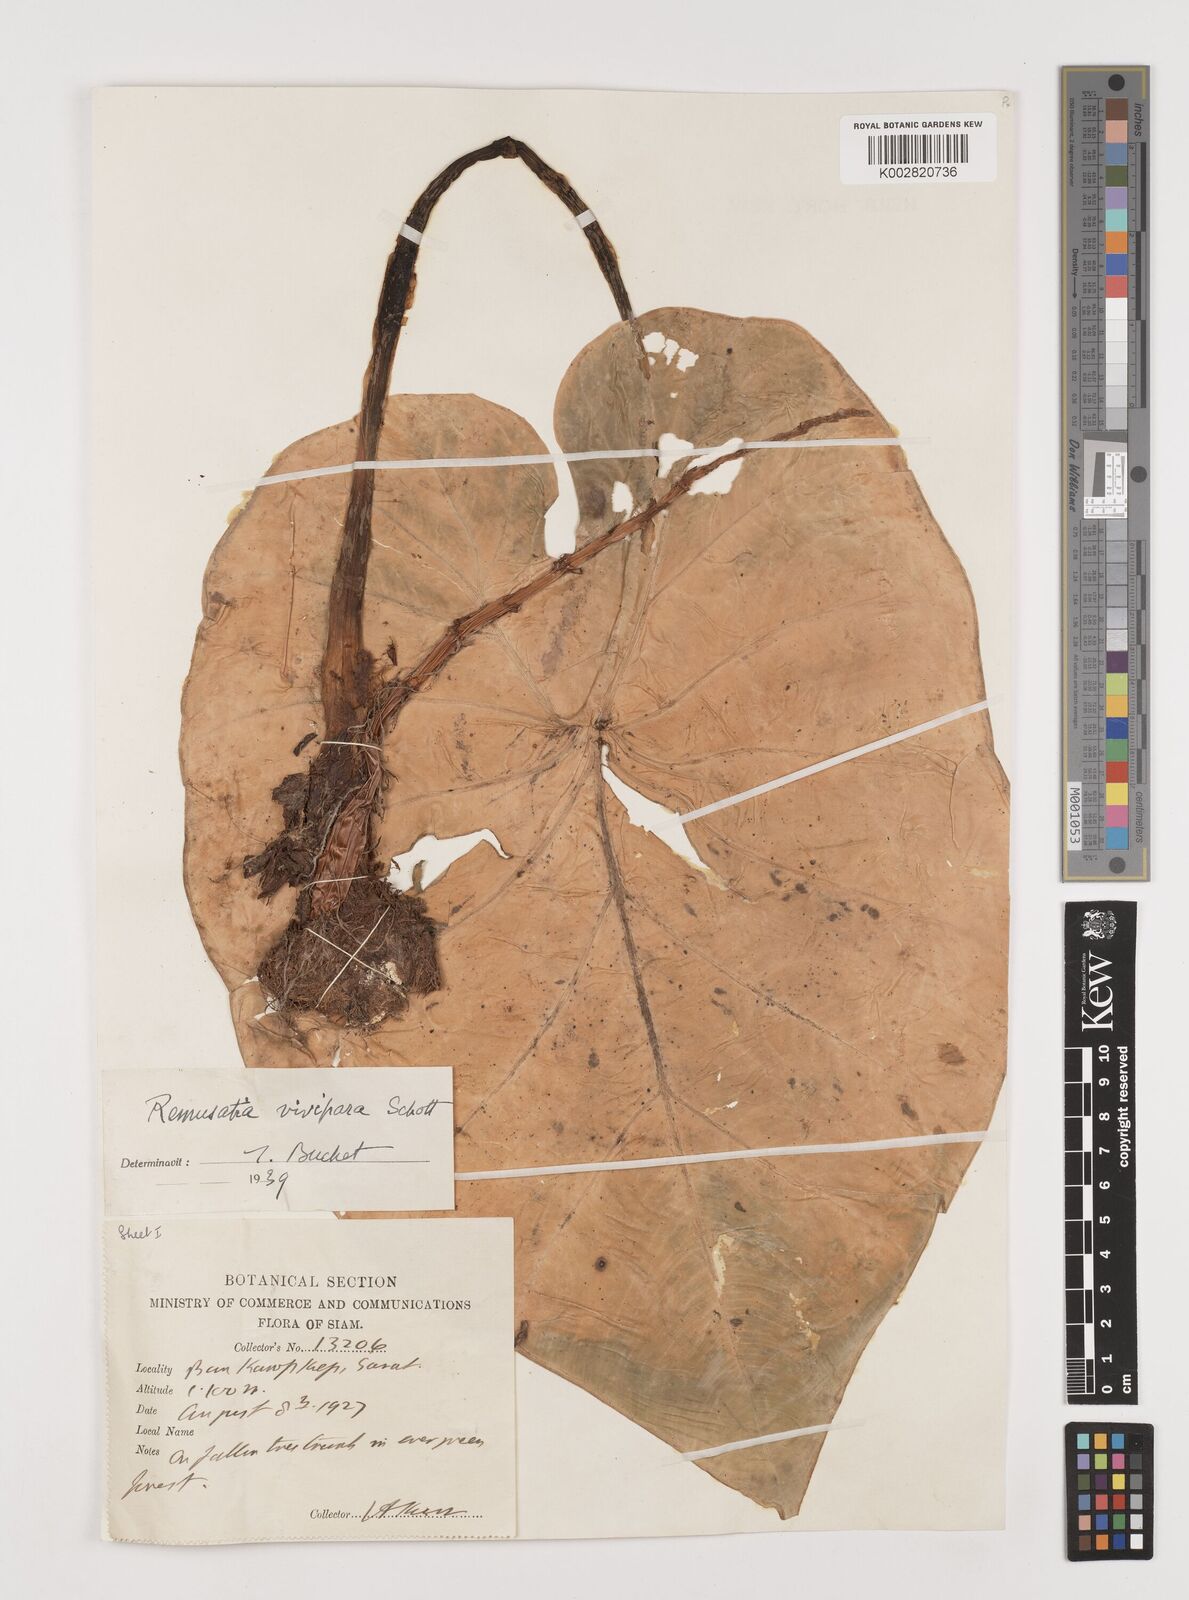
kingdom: Plantae
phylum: Tracheophyta
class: Liliopsida
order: Alismatales
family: Araceae
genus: Remusatia
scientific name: Remusatia vivipara
